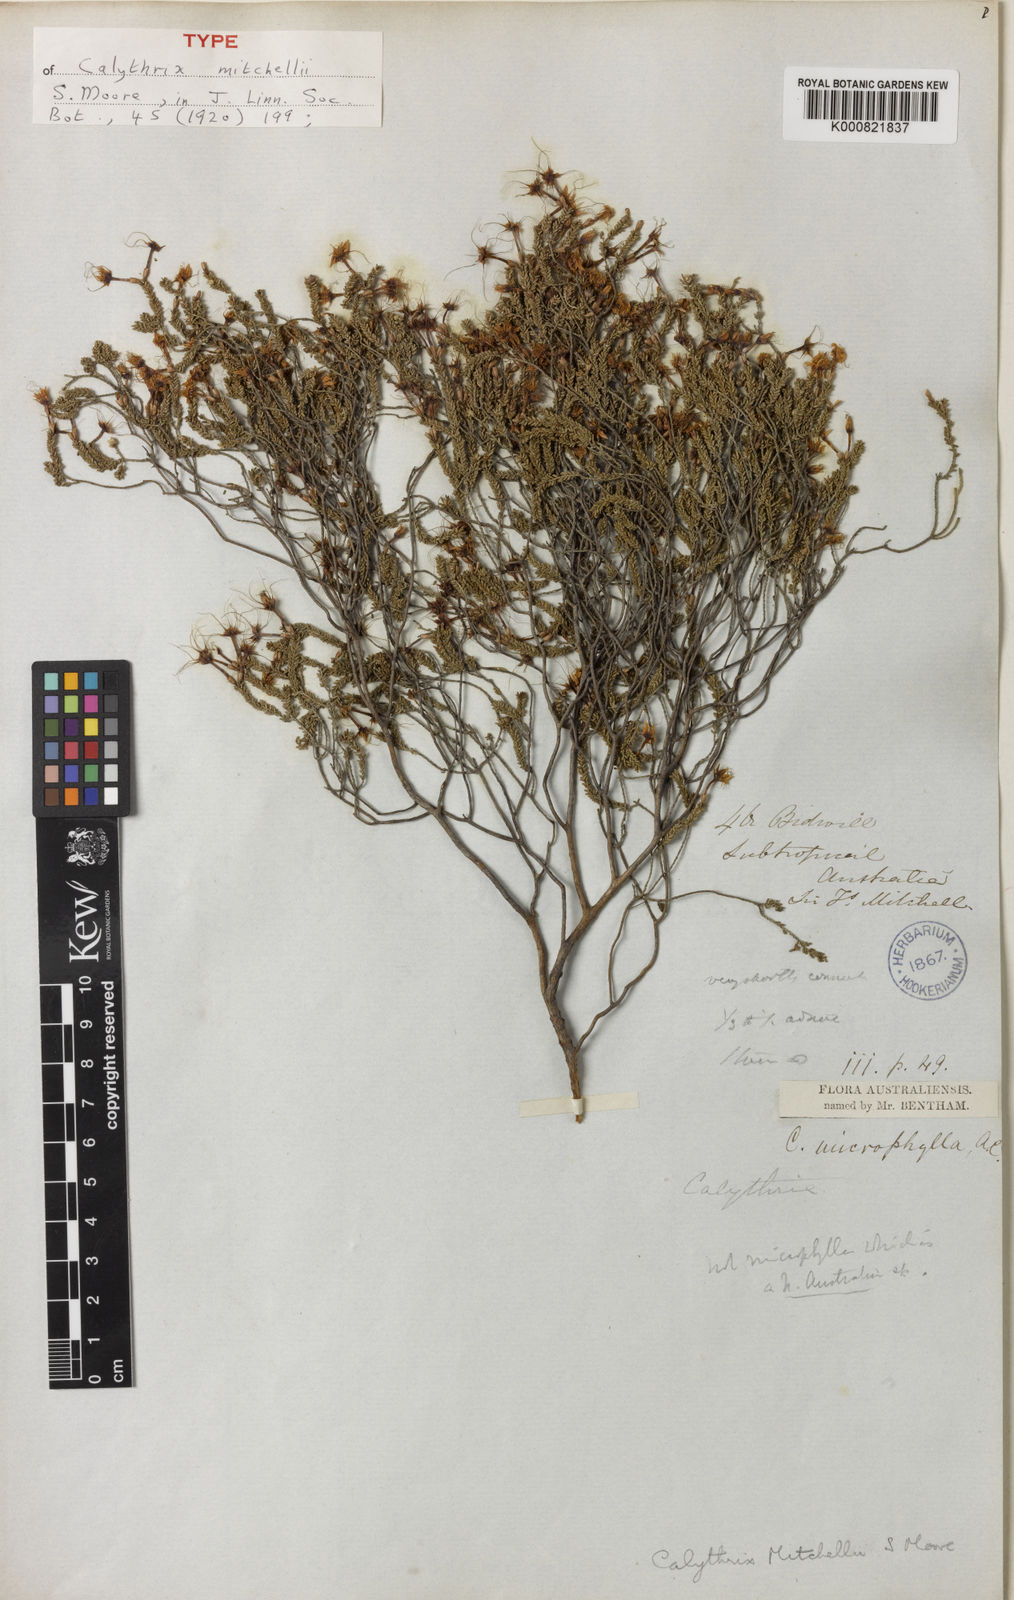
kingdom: Plantae
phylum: Tracheophyta
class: Magnoliopsida
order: Myrtales
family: Myrtaceae
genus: Calytrix
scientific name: Calytrix tetragona
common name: Common fringe myrtle
